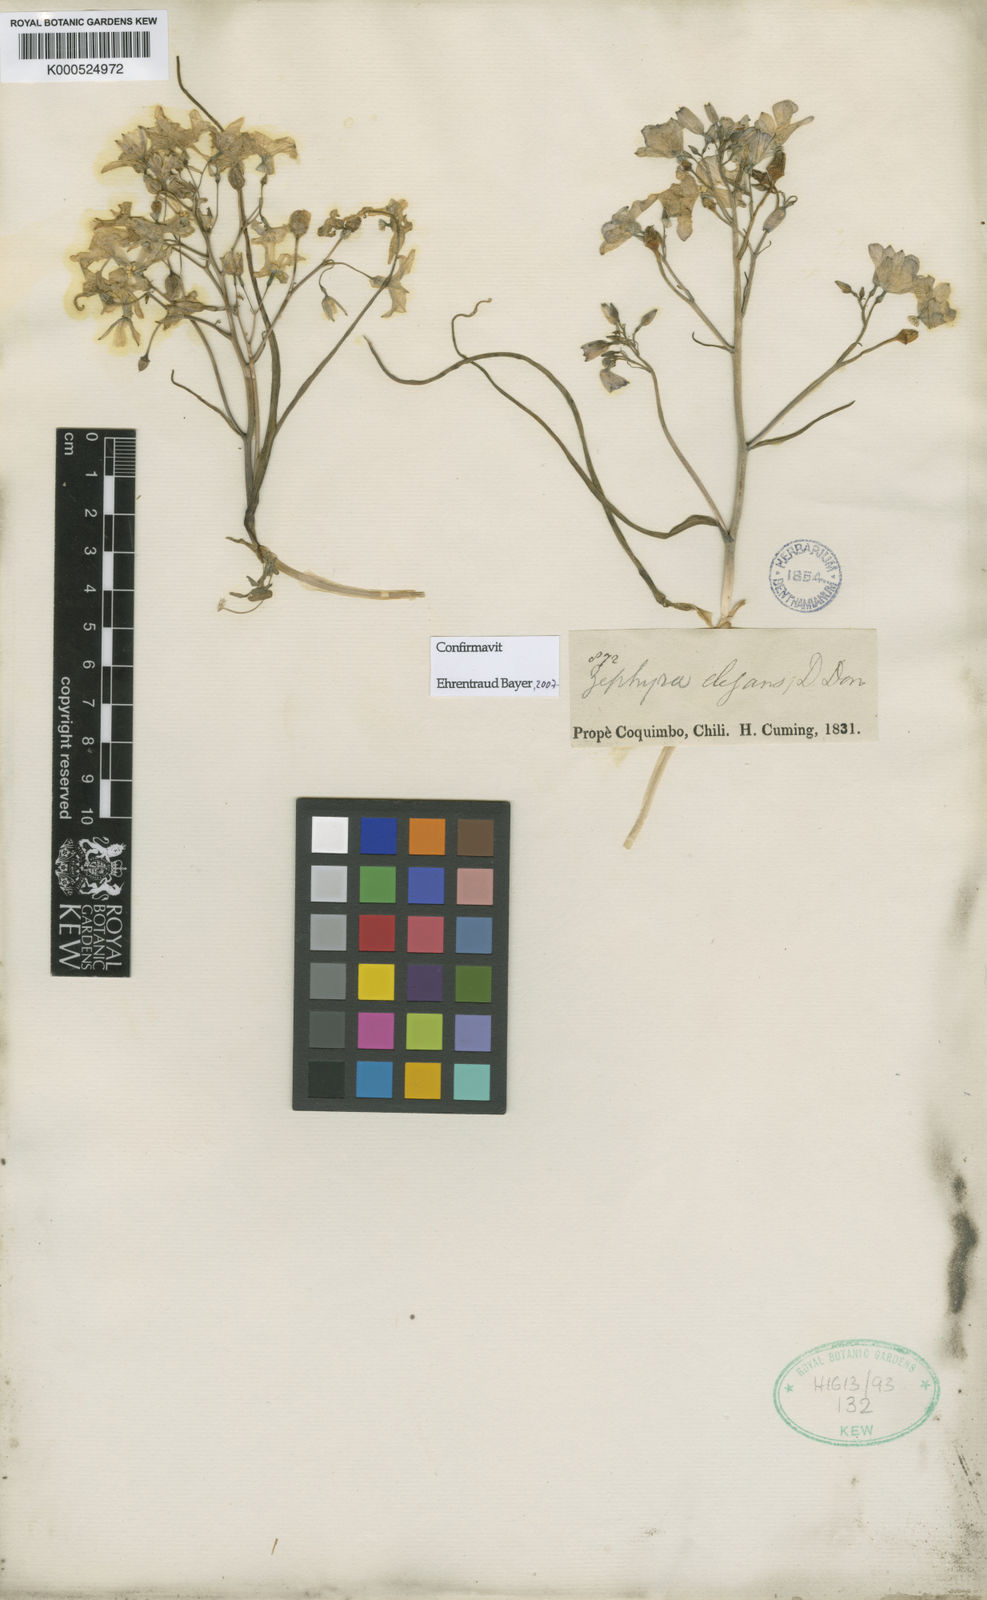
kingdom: Plantae
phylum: Tracheophyta
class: Liliopsida
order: Asparagales
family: Tecophilaeaceae
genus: Zephyra
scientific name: Zephyra elegans
